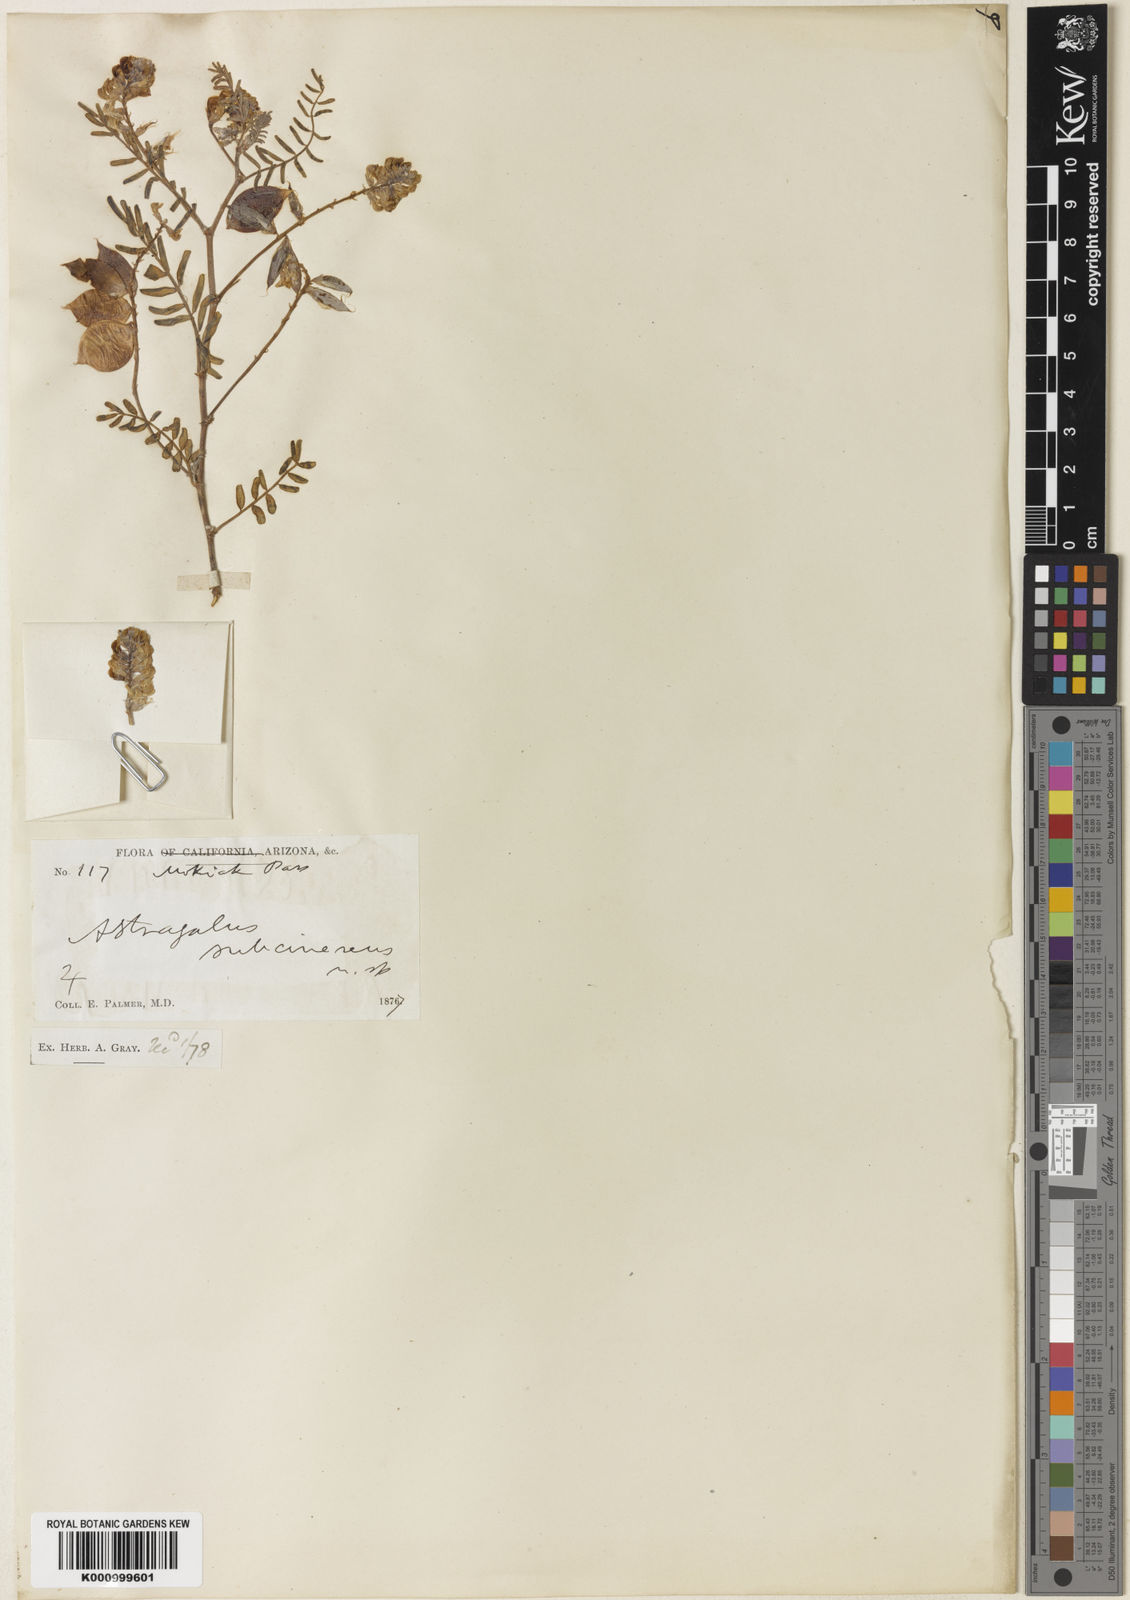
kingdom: Plantae
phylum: Tracheophyta
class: Magnoliopsida
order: Fabales
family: Fabaceae
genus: Astragalus
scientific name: Astragalus subcinereus
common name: Siler's milk-vetch
